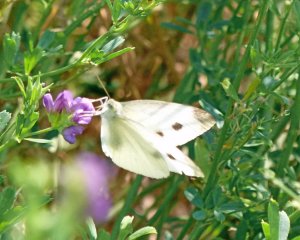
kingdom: Animalia
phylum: Arthropoda
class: Insecta
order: Lepidoptera
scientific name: Lepidoptera
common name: Butterflies
